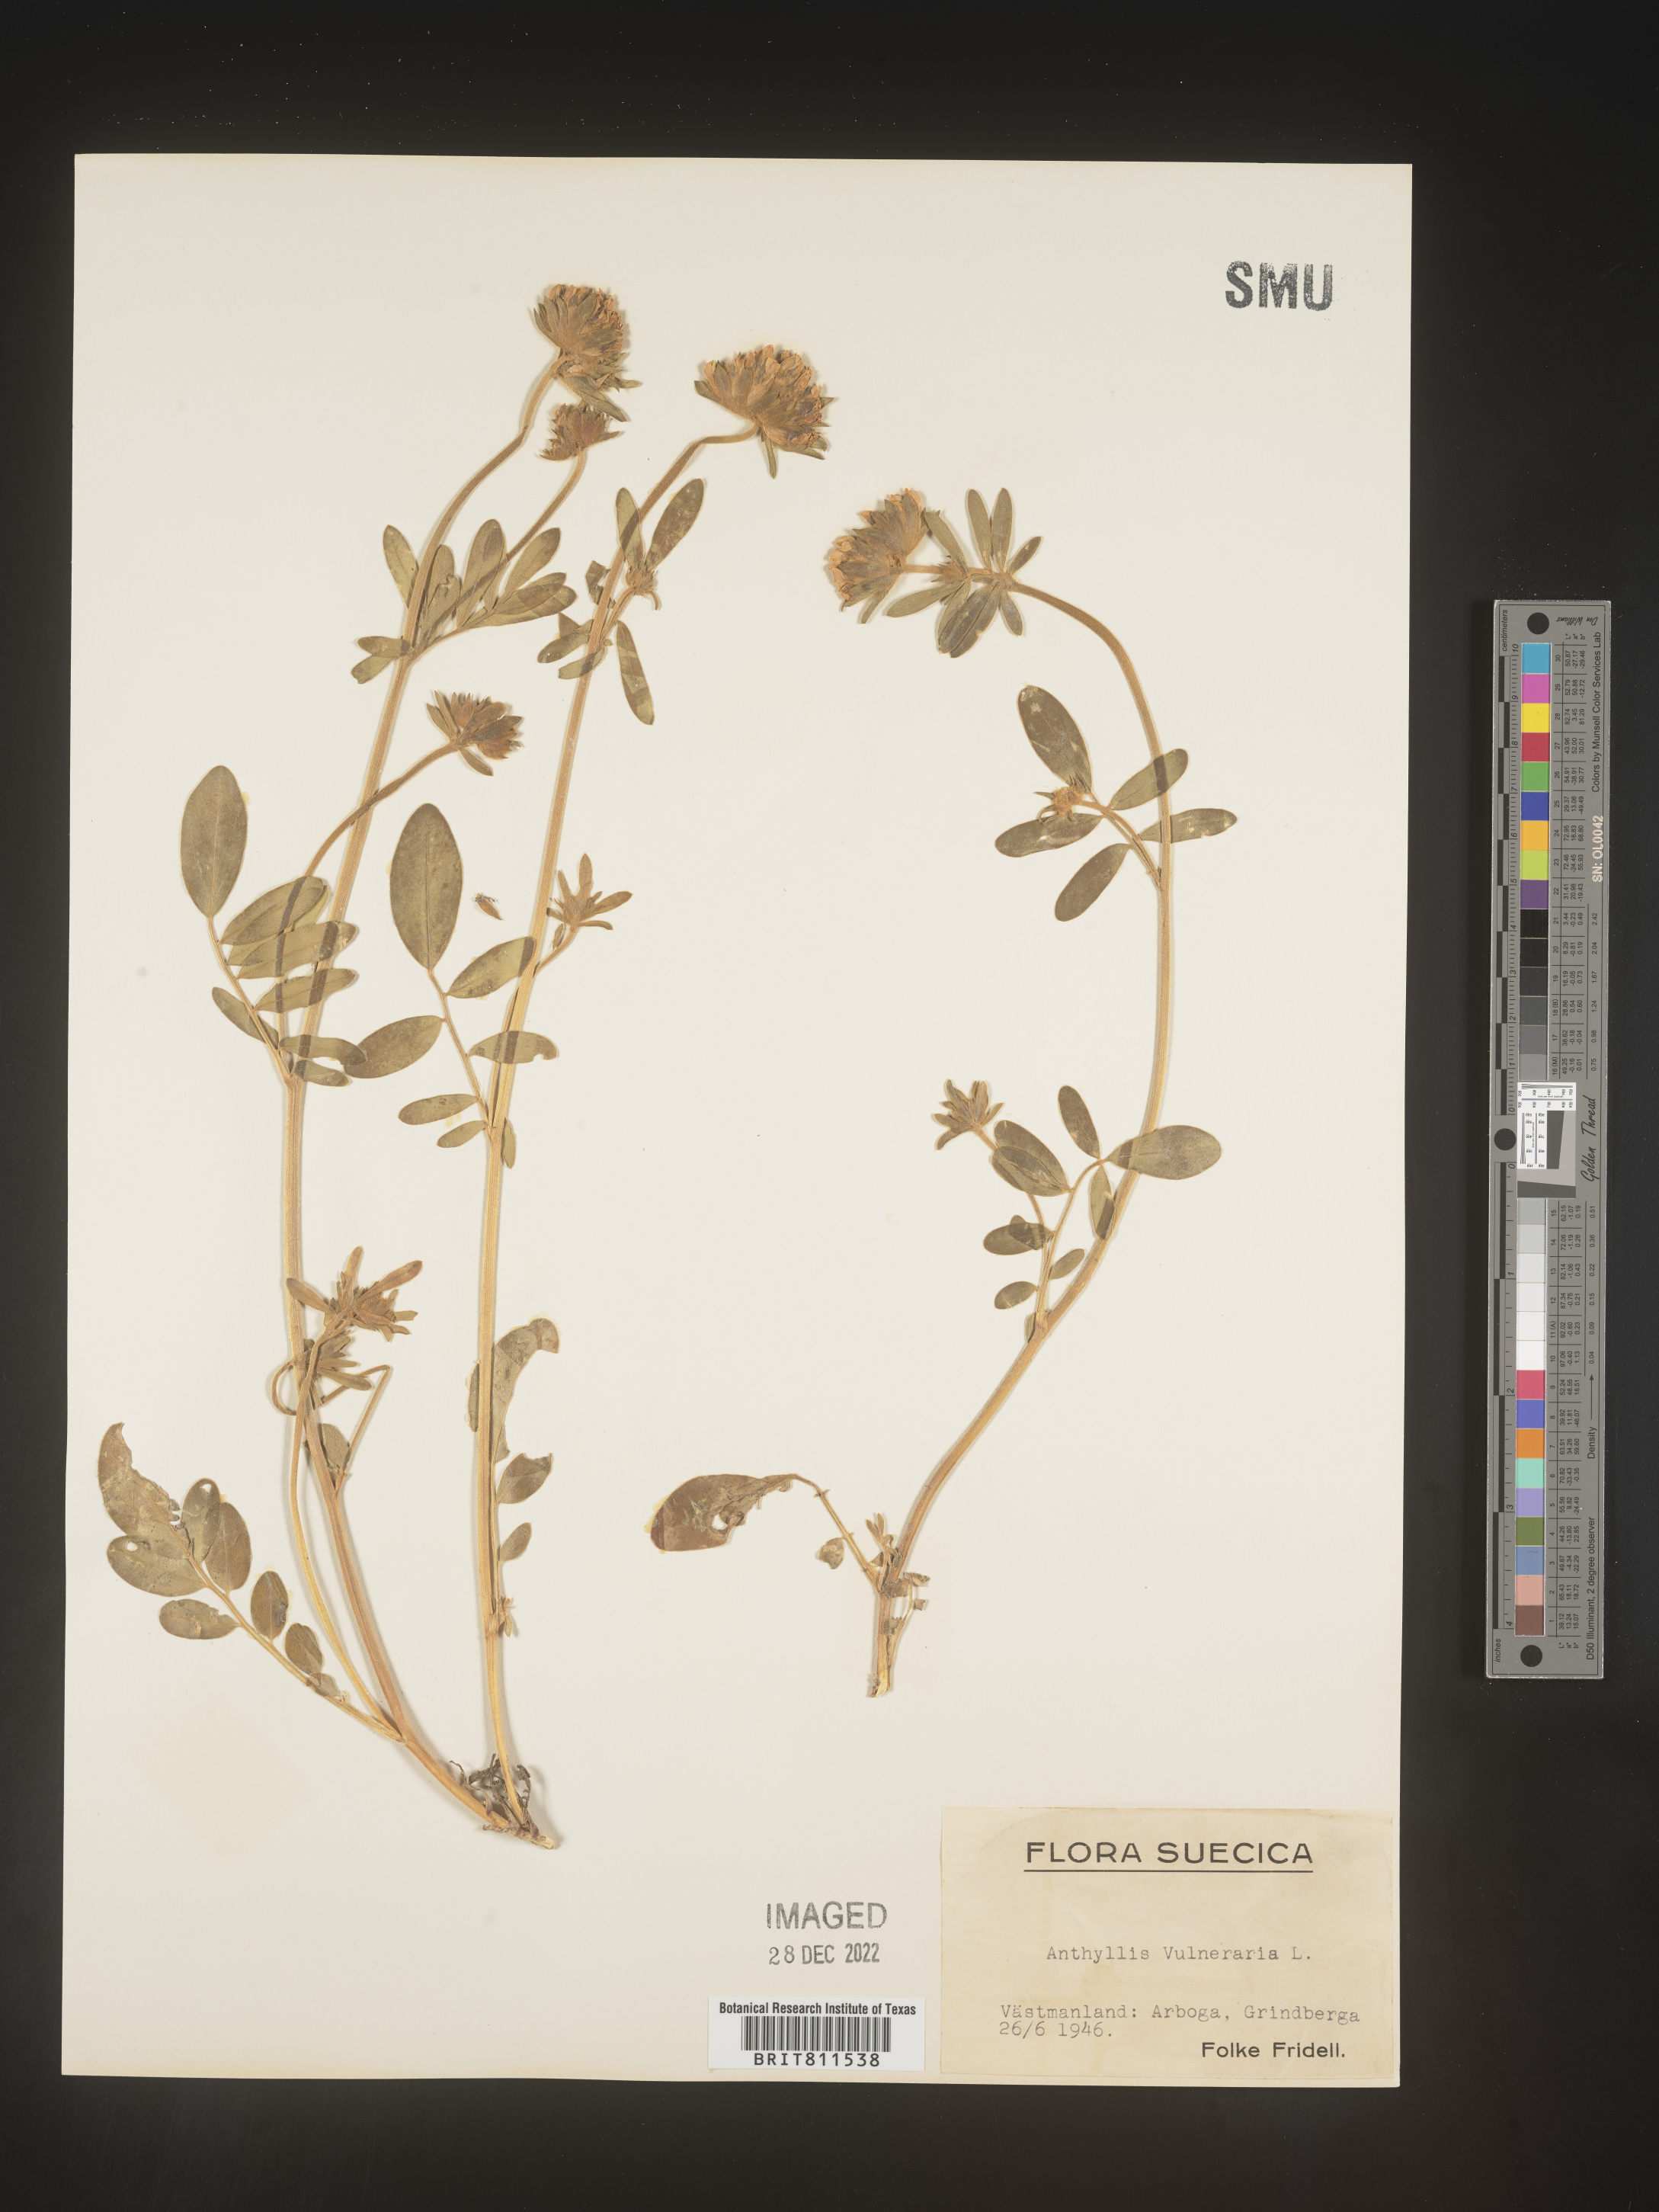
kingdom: Plantae
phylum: Tracheophyta
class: Magnoliopsida
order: Fabales
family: Fabaceae
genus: Anthyllis
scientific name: Anthyllis vulneraria
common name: Kidney vetch
